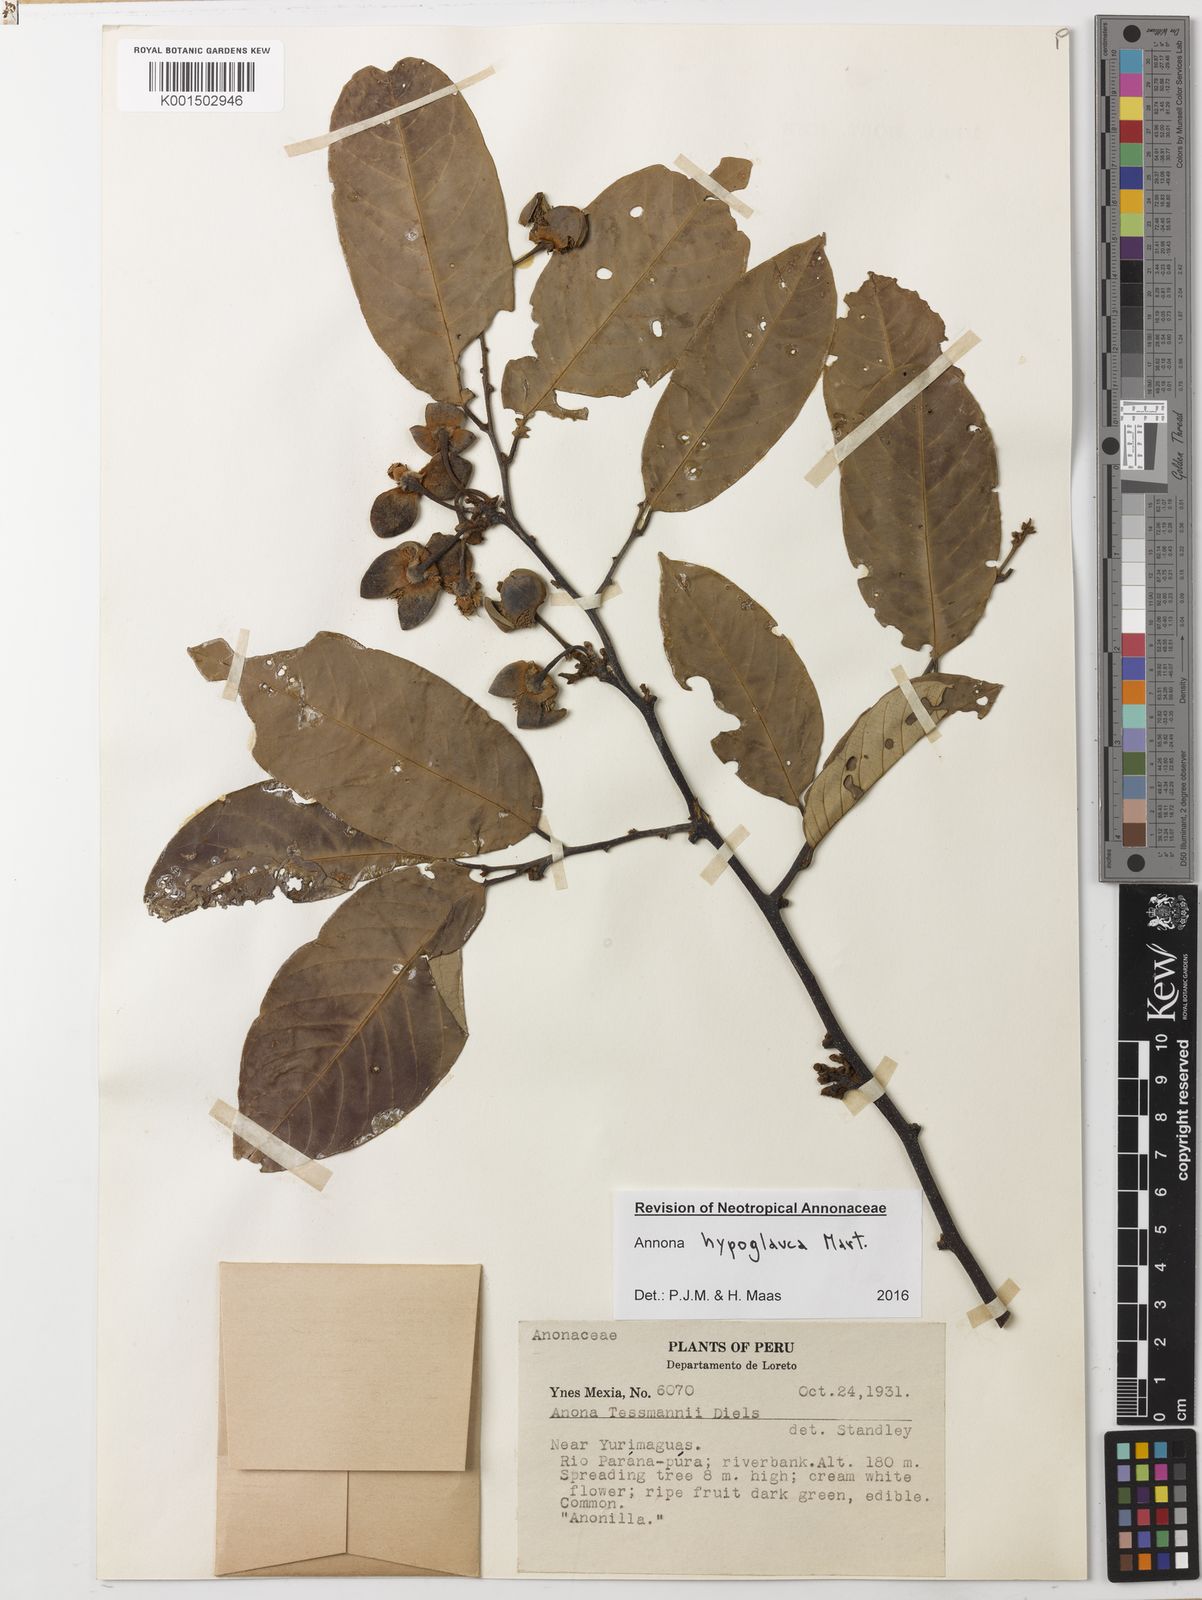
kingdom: Plantae
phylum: Tracheophyta
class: Magnoliopsida
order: Magnoliales
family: Annonaceae
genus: Annona
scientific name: Annona hypoglauca
